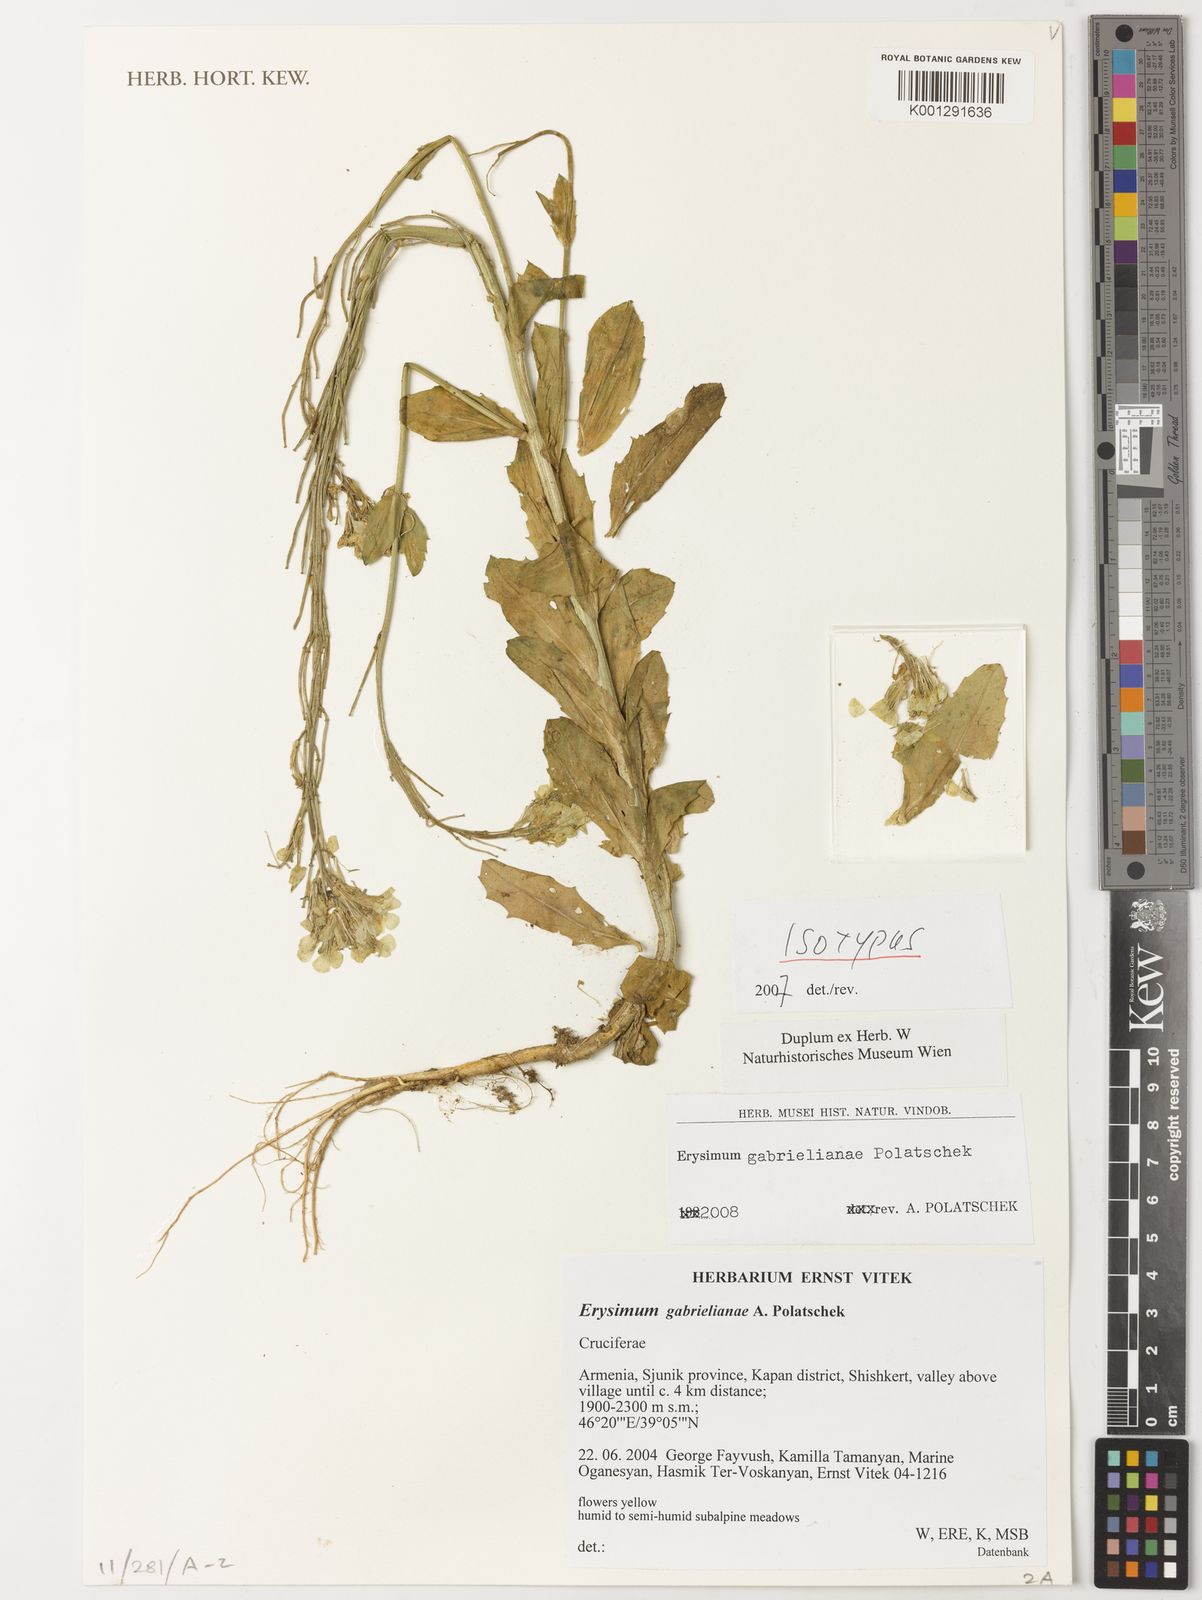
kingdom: Plantae
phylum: Tracheophyta
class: Magnoliopsida
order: Brassicales
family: Brassicaceae
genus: Erysimum
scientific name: Erysimum ibericum
